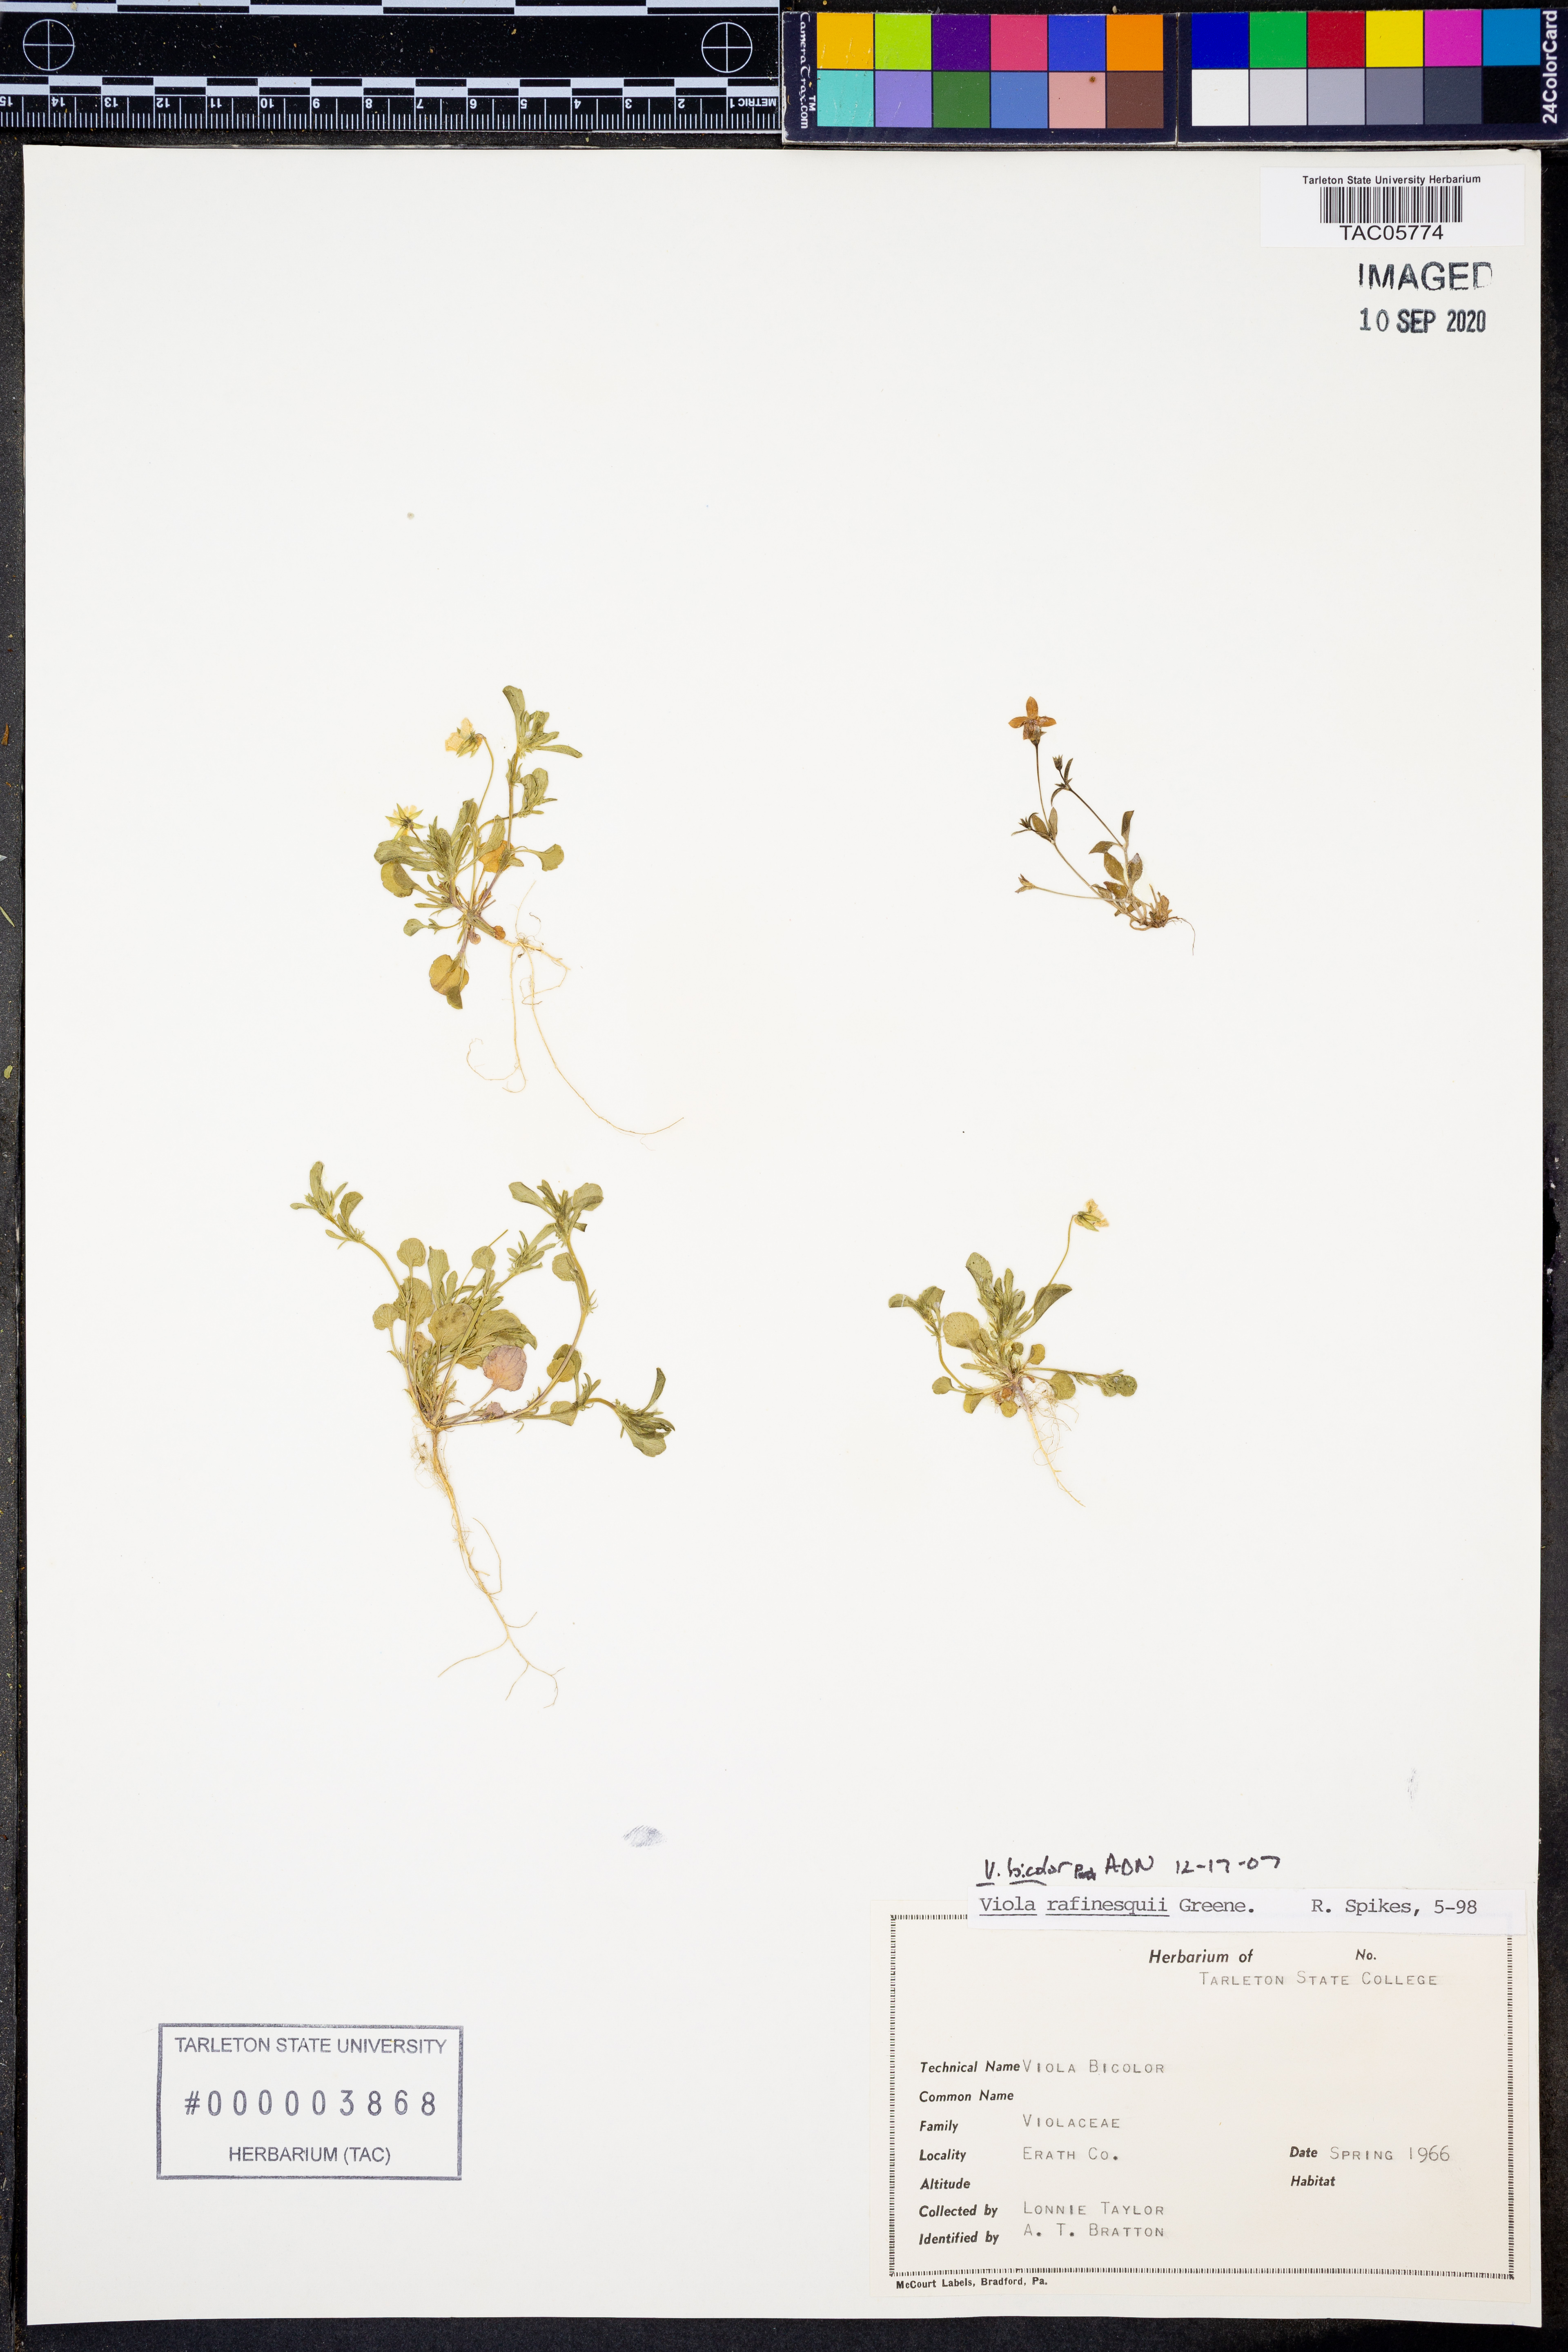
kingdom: Plantae
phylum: Tracheophyta
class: Magnoliopsida
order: Malpighiales
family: Violaceae
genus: Viola
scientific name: Viola rafinesquei
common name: American field pansy
